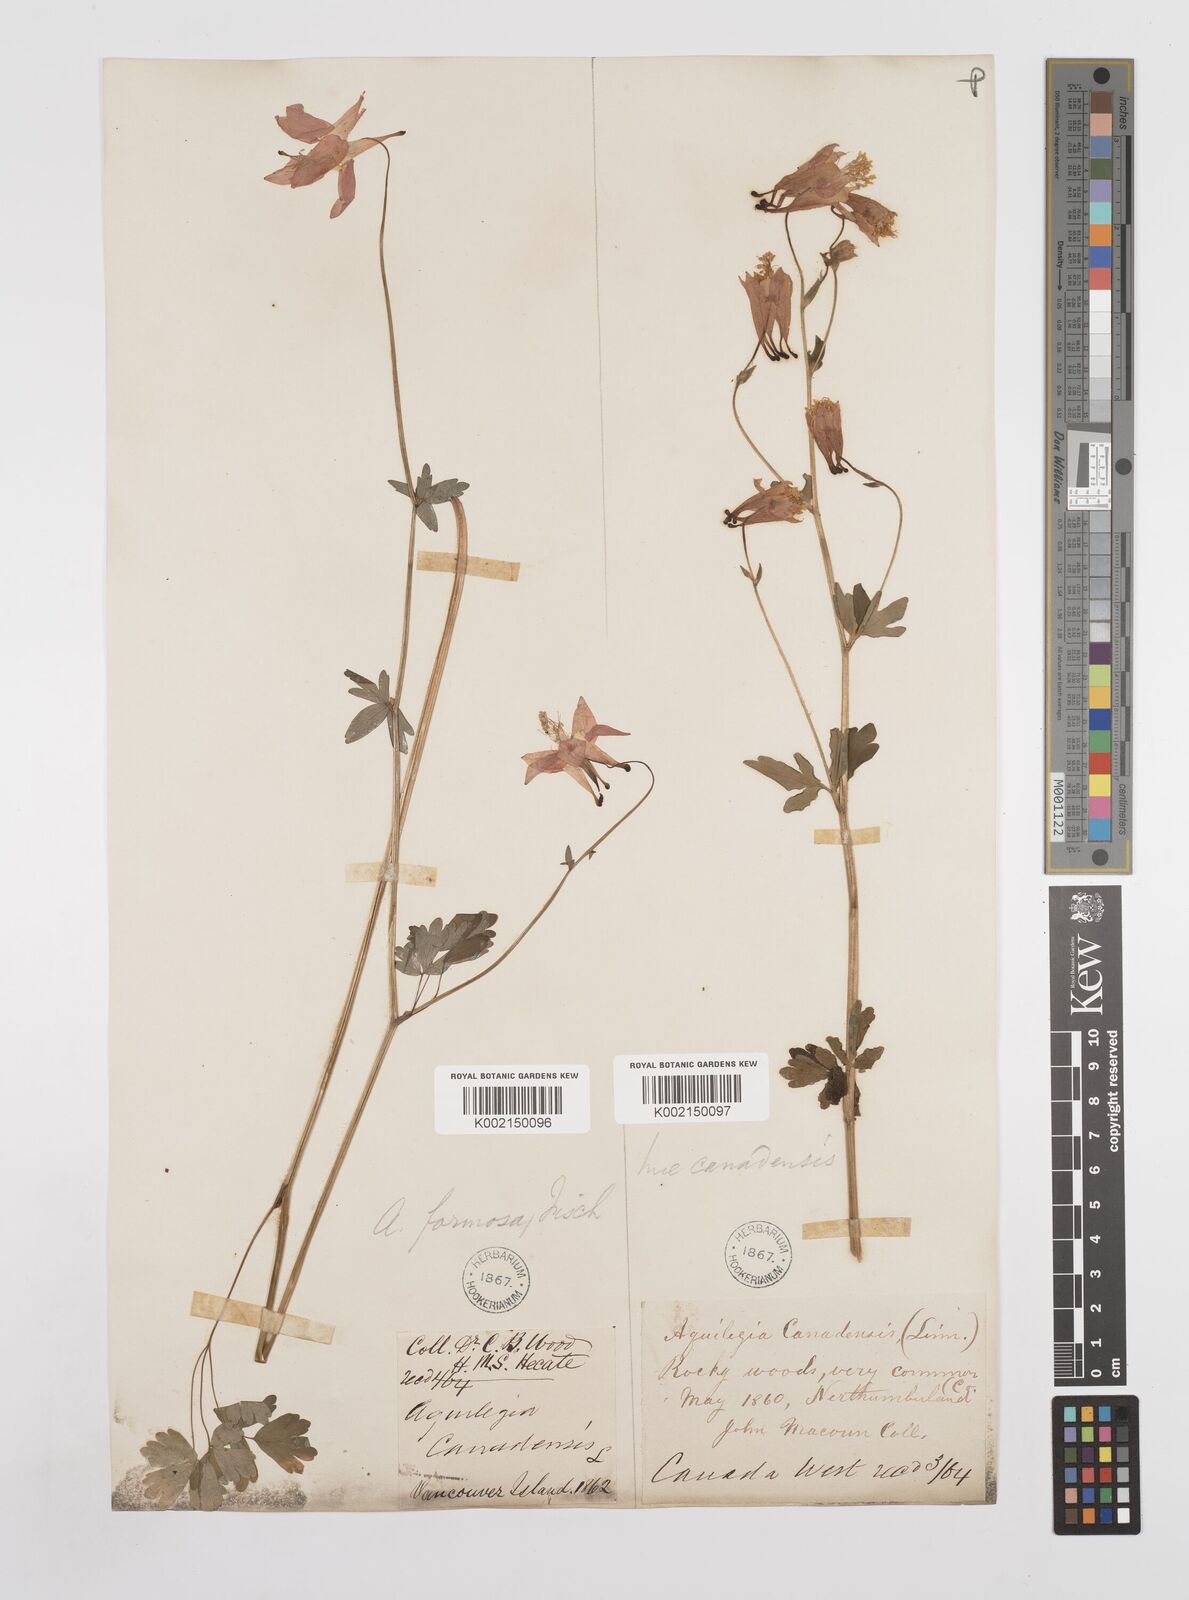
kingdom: Plantae
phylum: Tracheophyta
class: Magnoliopsida
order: Ranunculales
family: Ranunculaceae
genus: Aquilegia
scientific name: Aquilegia
